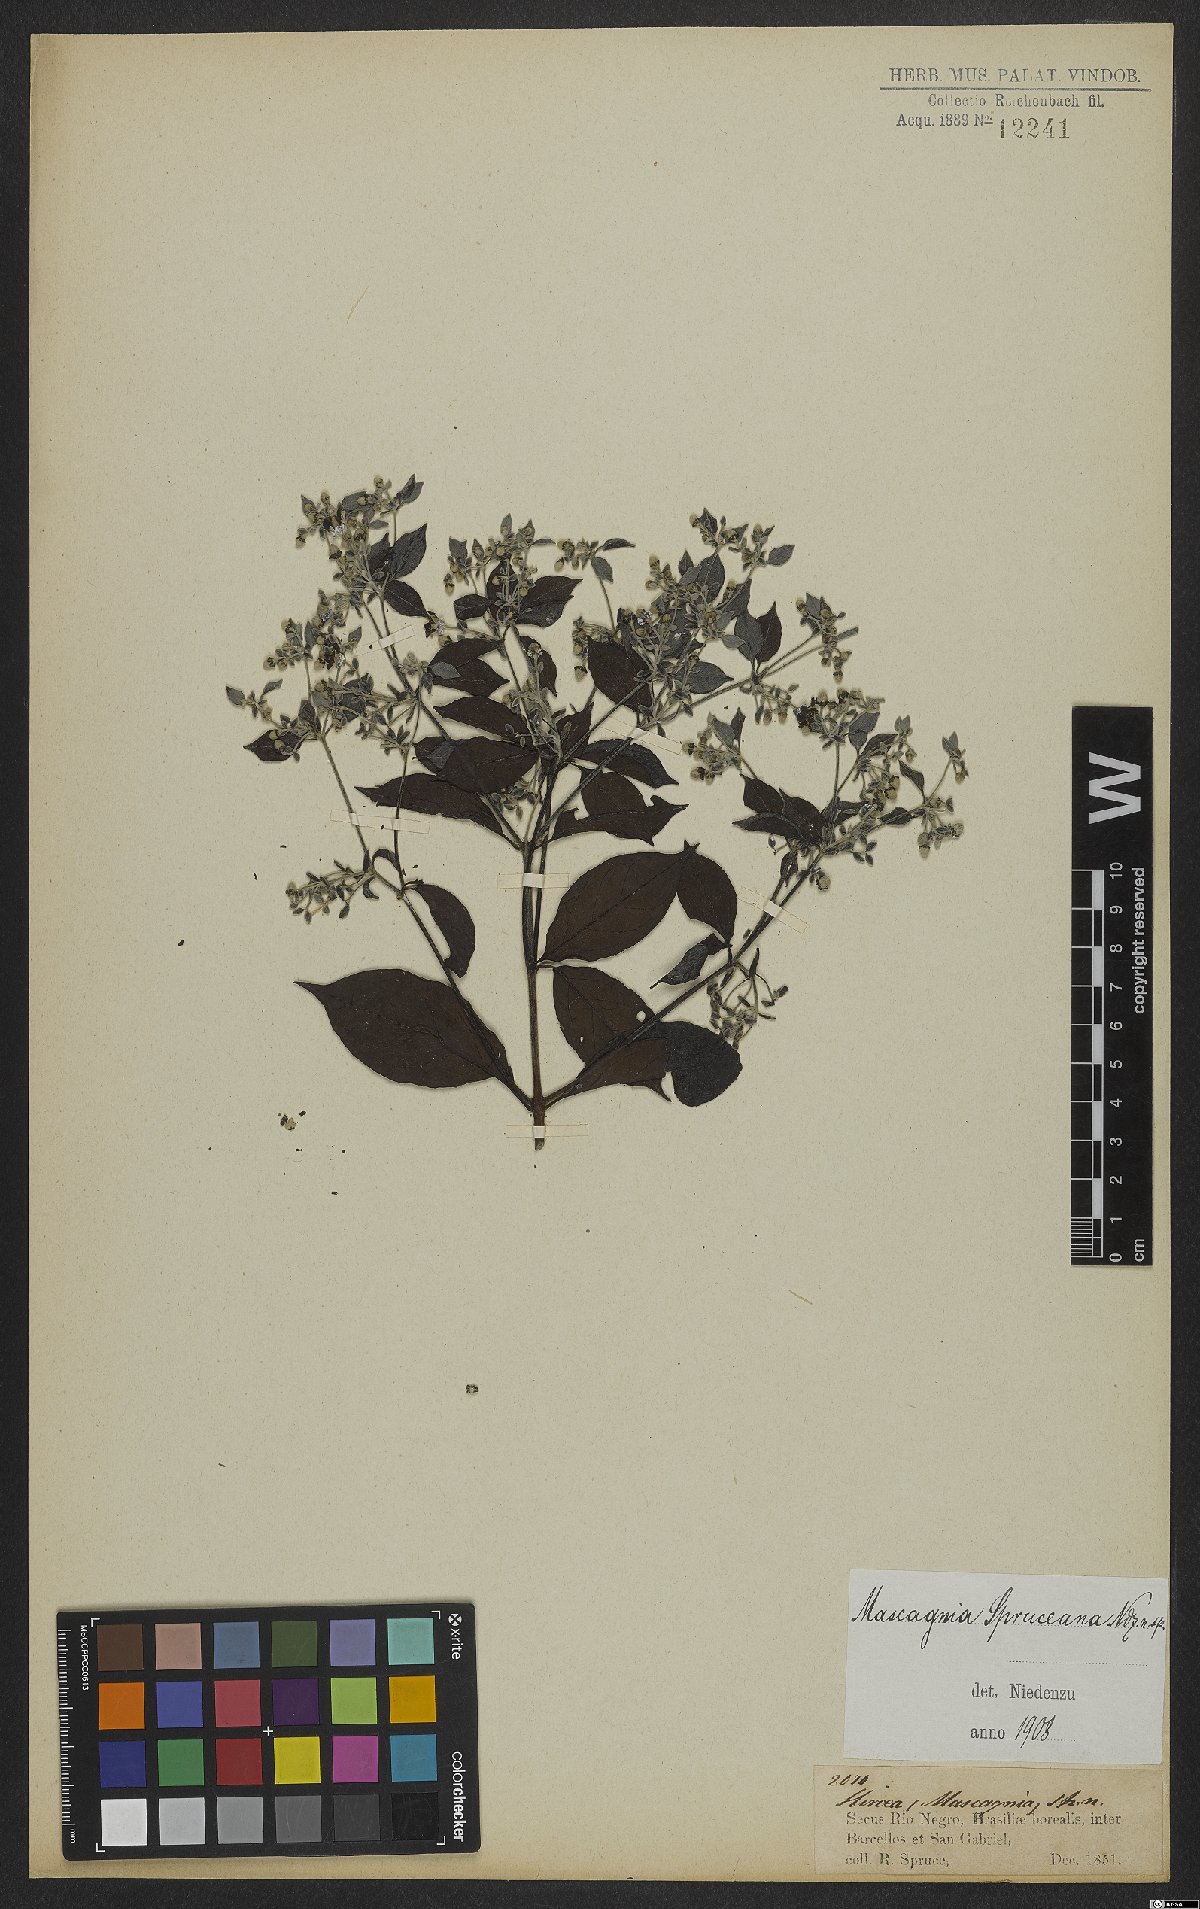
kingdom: Plantae
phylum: Tracheophyta
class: Magnoliopsida
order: Malpighiales
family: Malpighiaceae
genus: Malpighiodes
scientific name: Malpighiodes bracteosa
